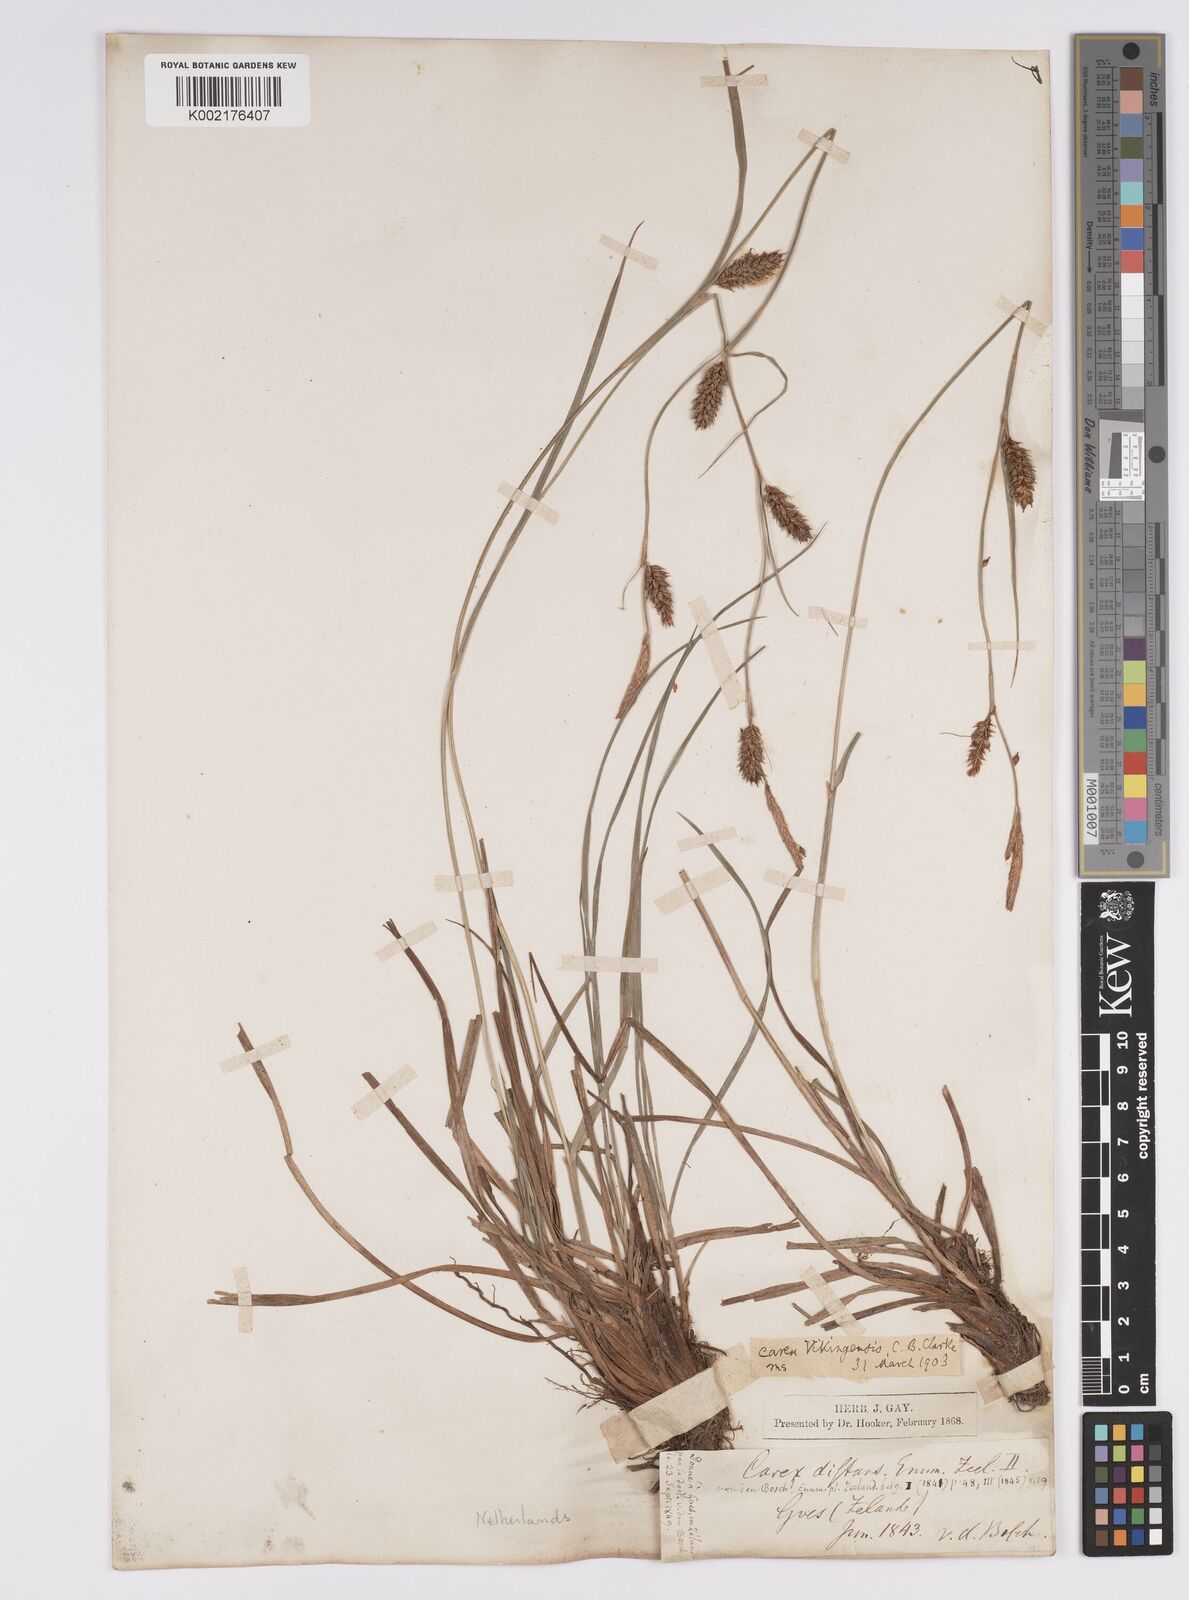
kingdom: Plantae
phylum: Tracheophyta
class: Liliopsida
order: Poales
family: Cyperaceae
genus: Carex
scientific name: Carex distans
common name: Distant sedge
